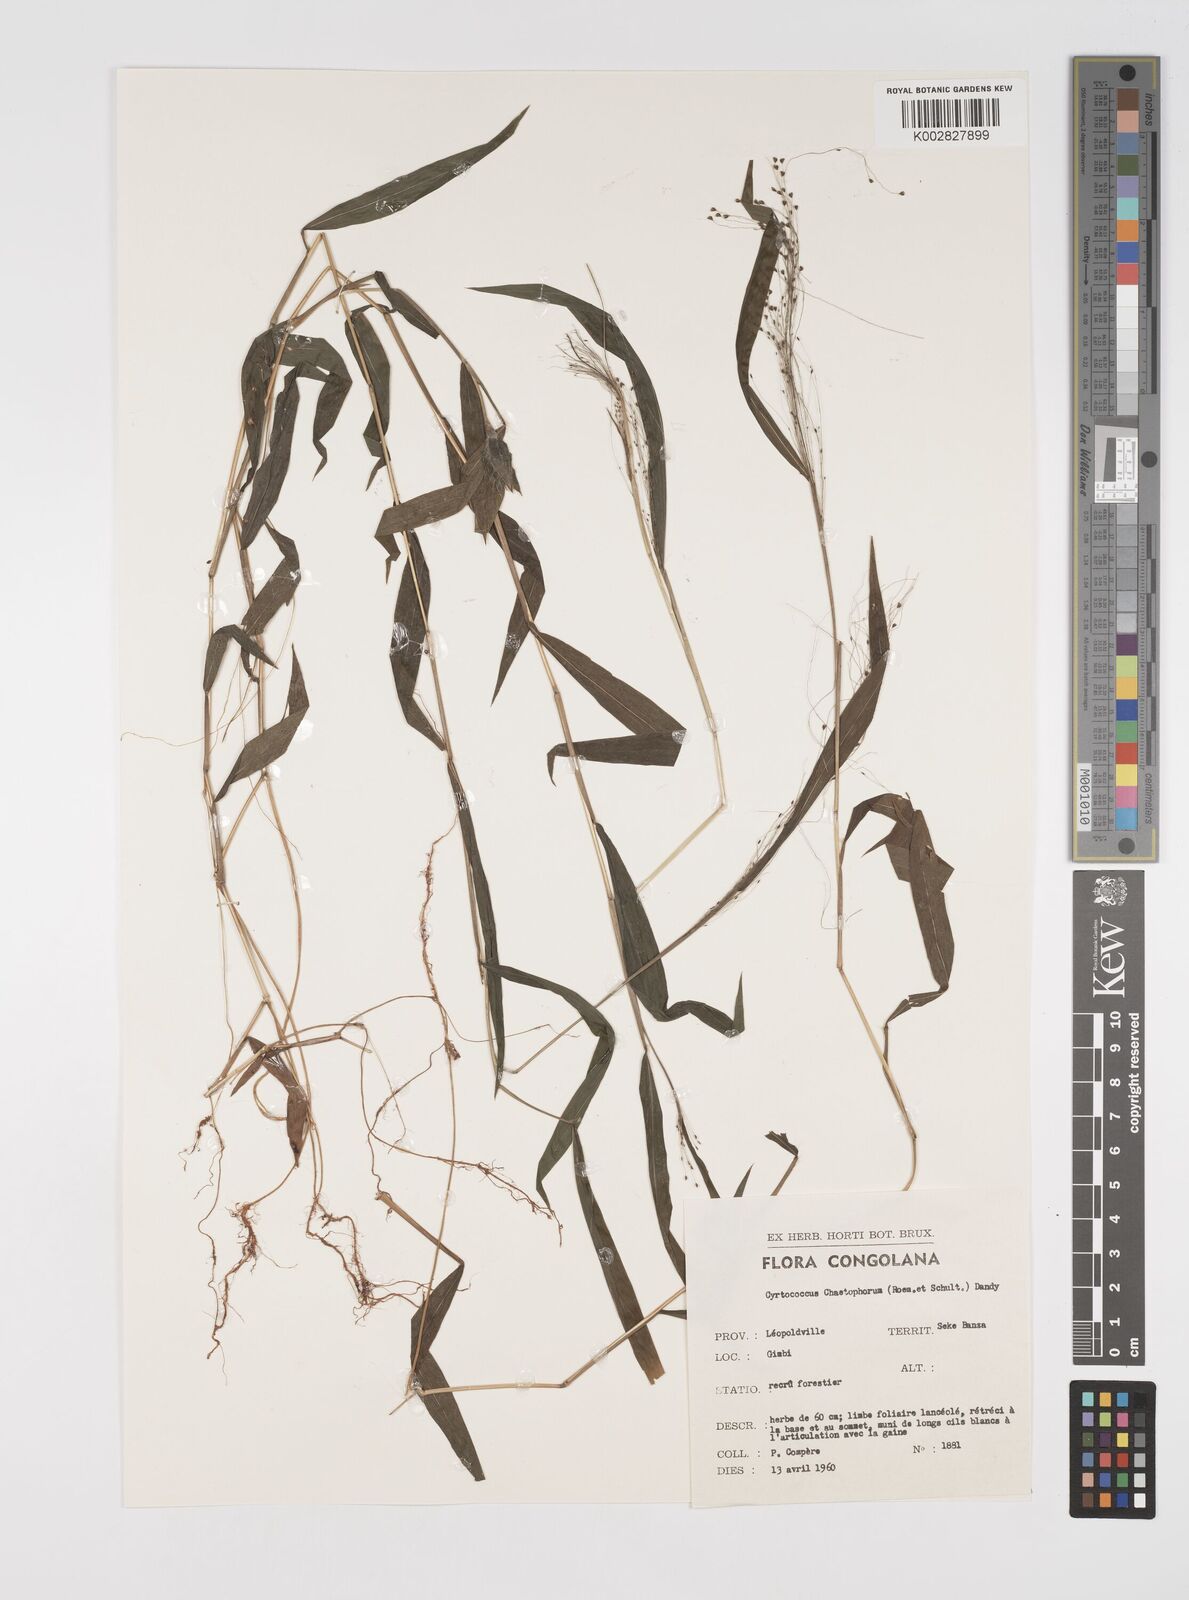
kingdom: Plantae
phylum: Tracheophyta
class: Liliopsida
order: Poales
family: Poaceae
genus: Cyrtococcum
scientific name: Cyrtococcum chaetophoron
